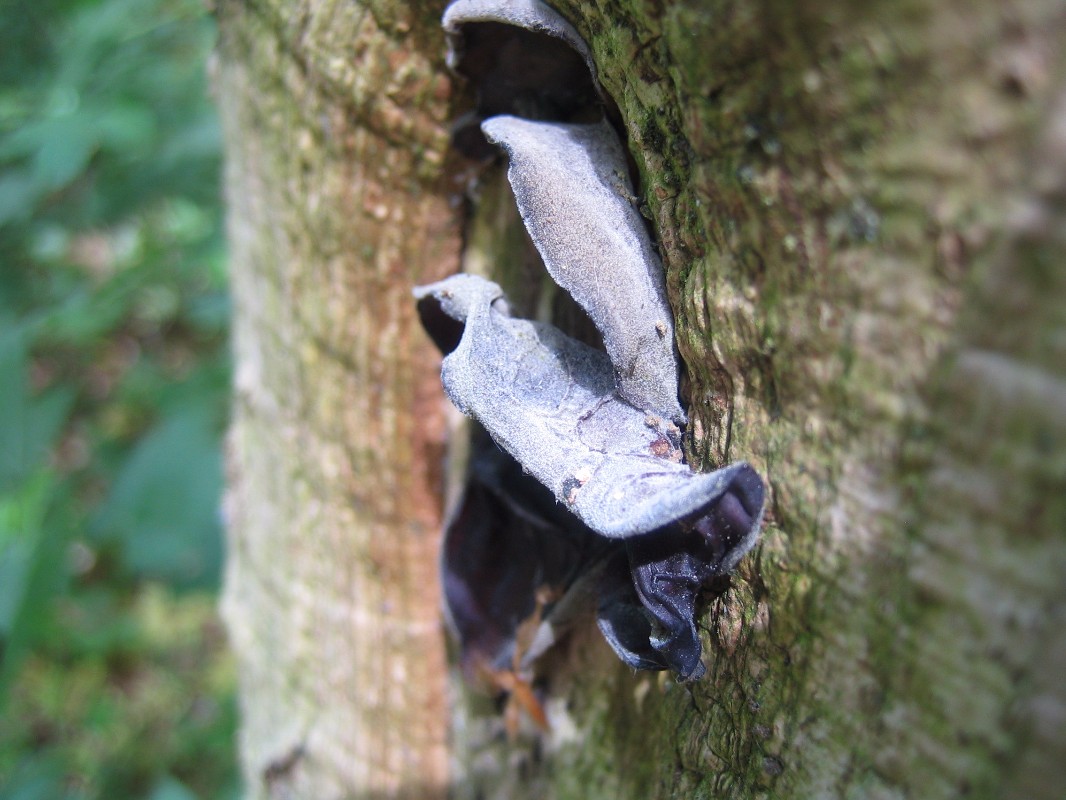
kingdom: Fungi
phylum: Basidiomycota
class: Agaricomycetes
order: Auriculariales
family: Auriculariaceae
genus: Auricularia
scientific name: Auricularia auricula-judae
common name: almindelig judasøre
